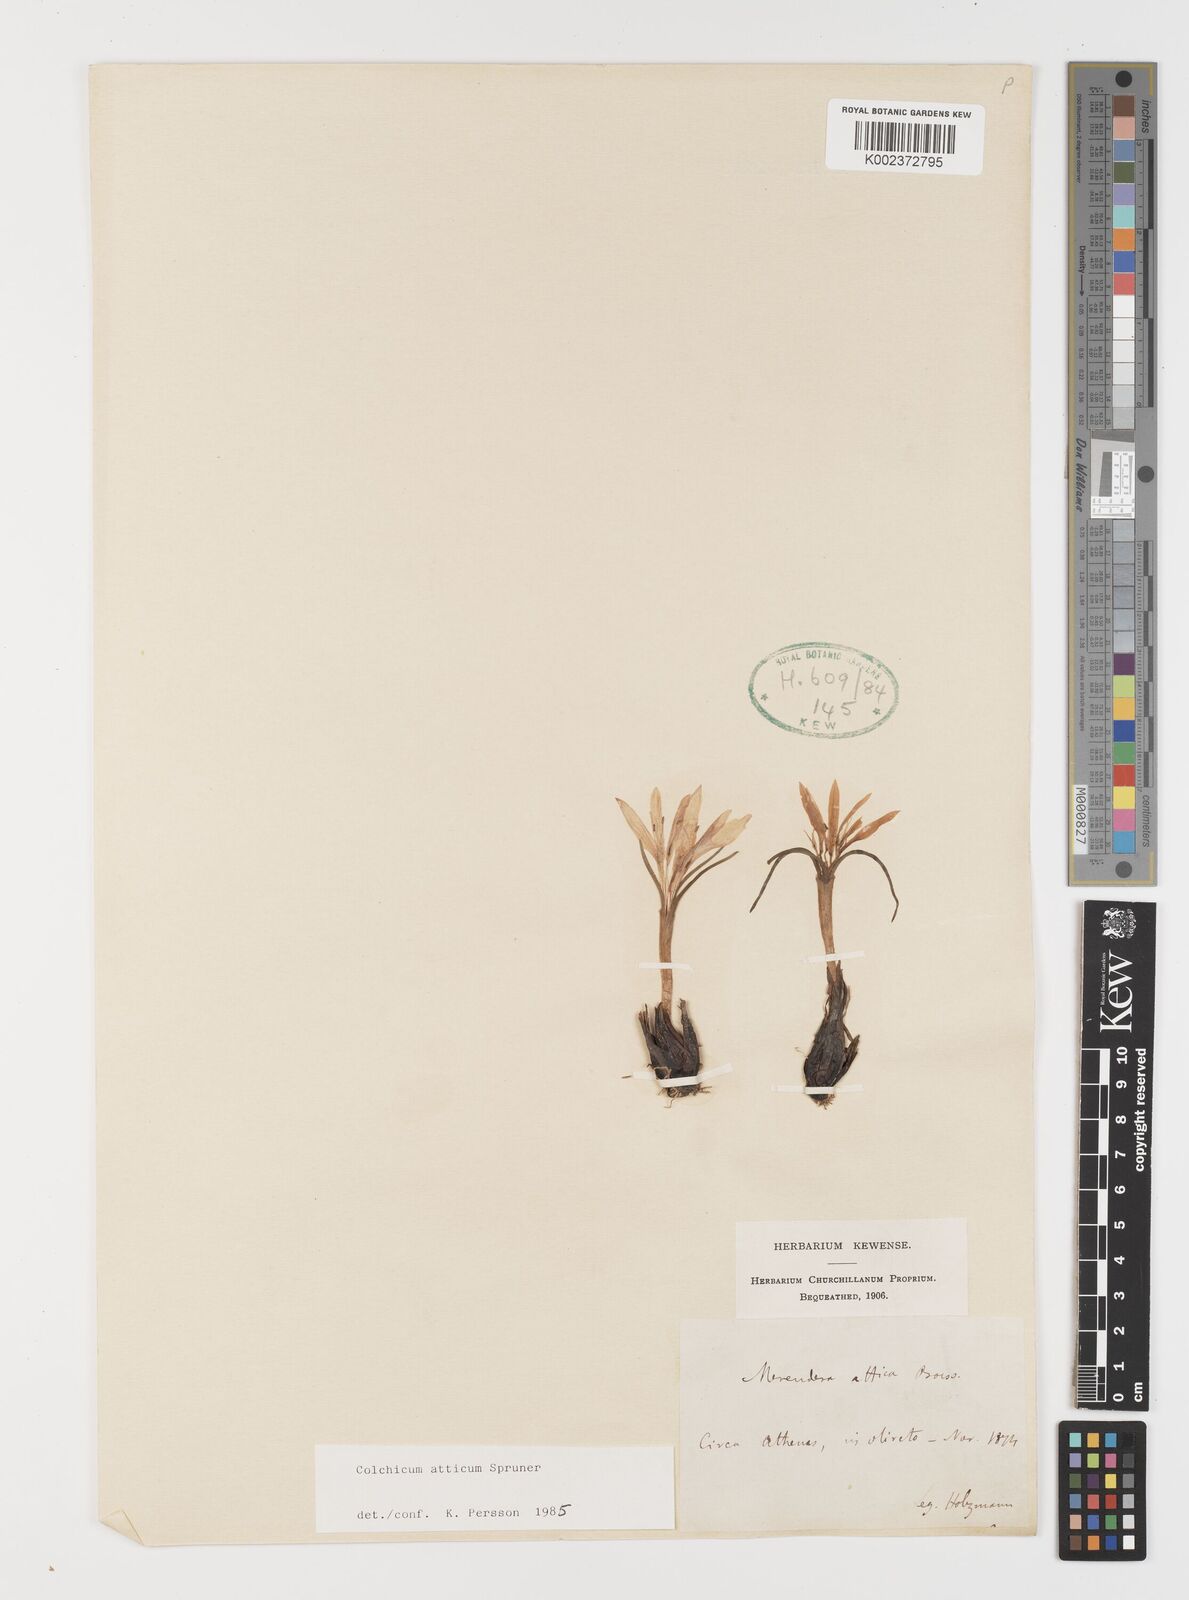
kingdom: Plantae
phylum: Tracheophyta
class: Liliopsida
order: Liliales
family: Colchicaceae
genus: Colchicum
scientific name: Colchicum atticum
